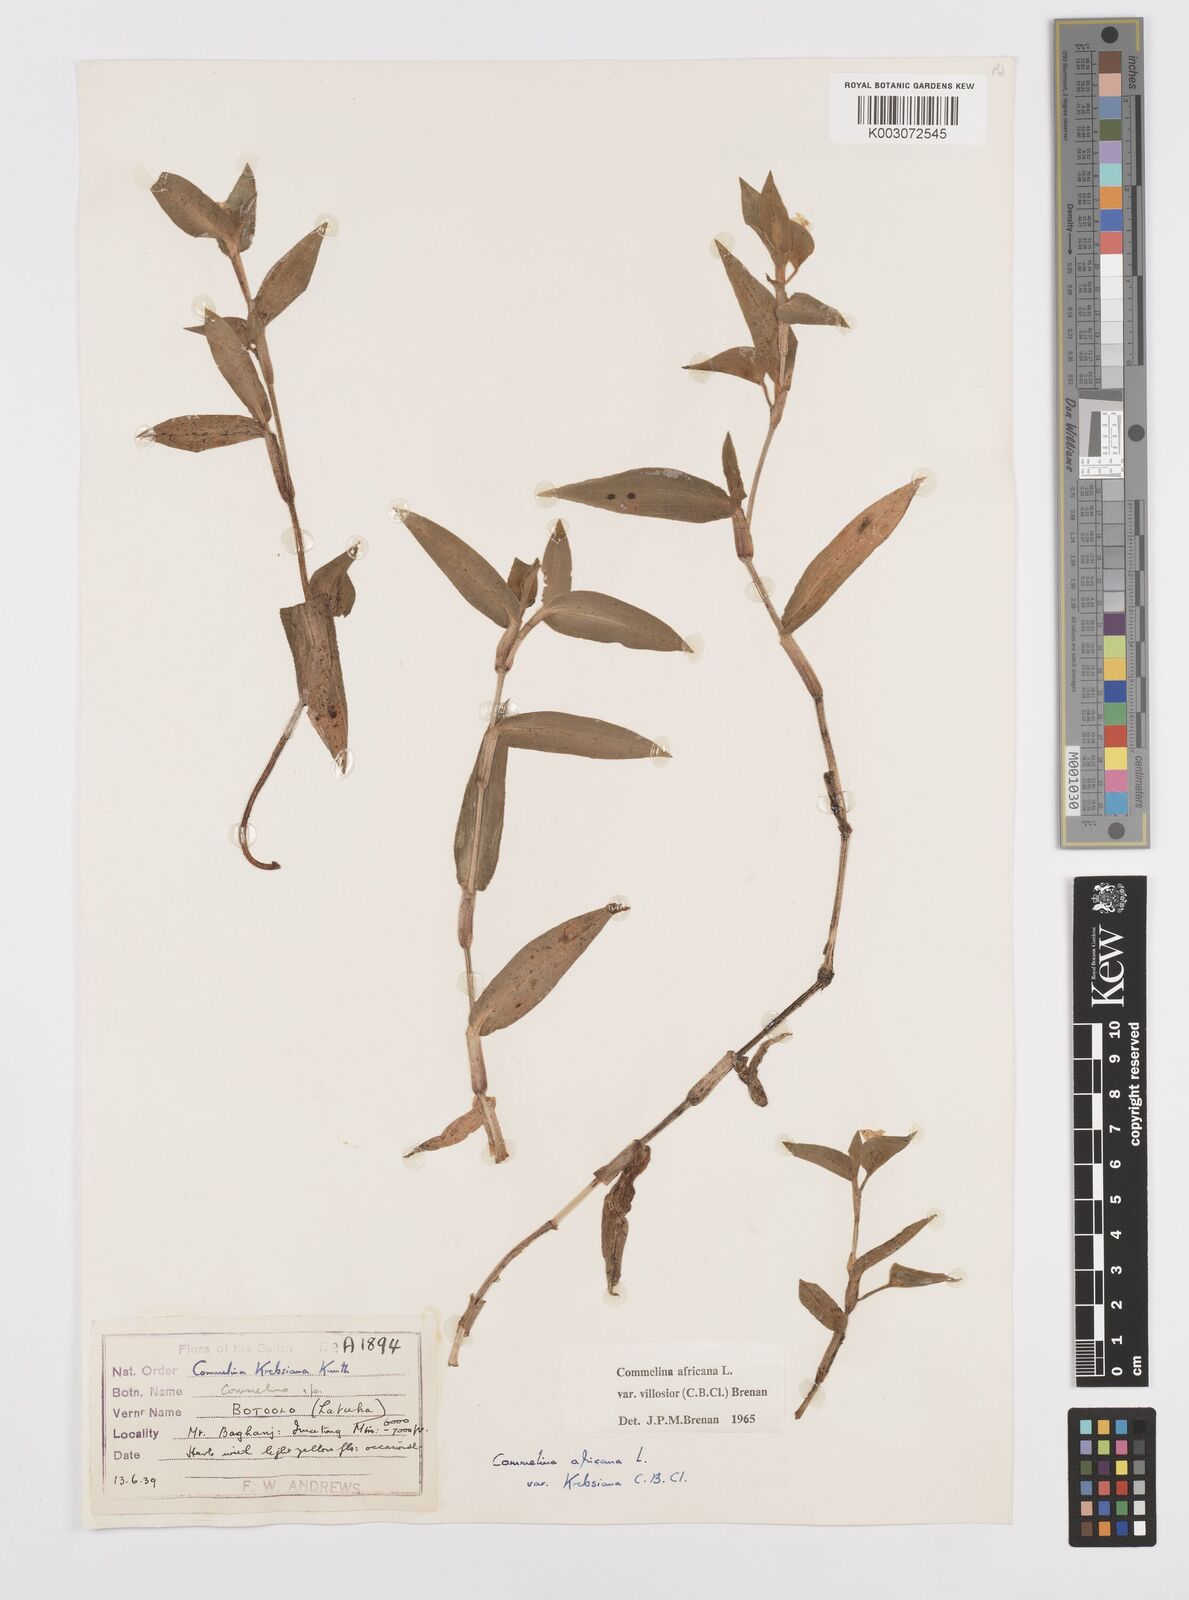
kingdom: Plantae
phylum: Tracheophyta
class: Liliopsida
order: Commelinales
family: Commelinaceae
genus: Commelina
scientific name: Commelina africana
